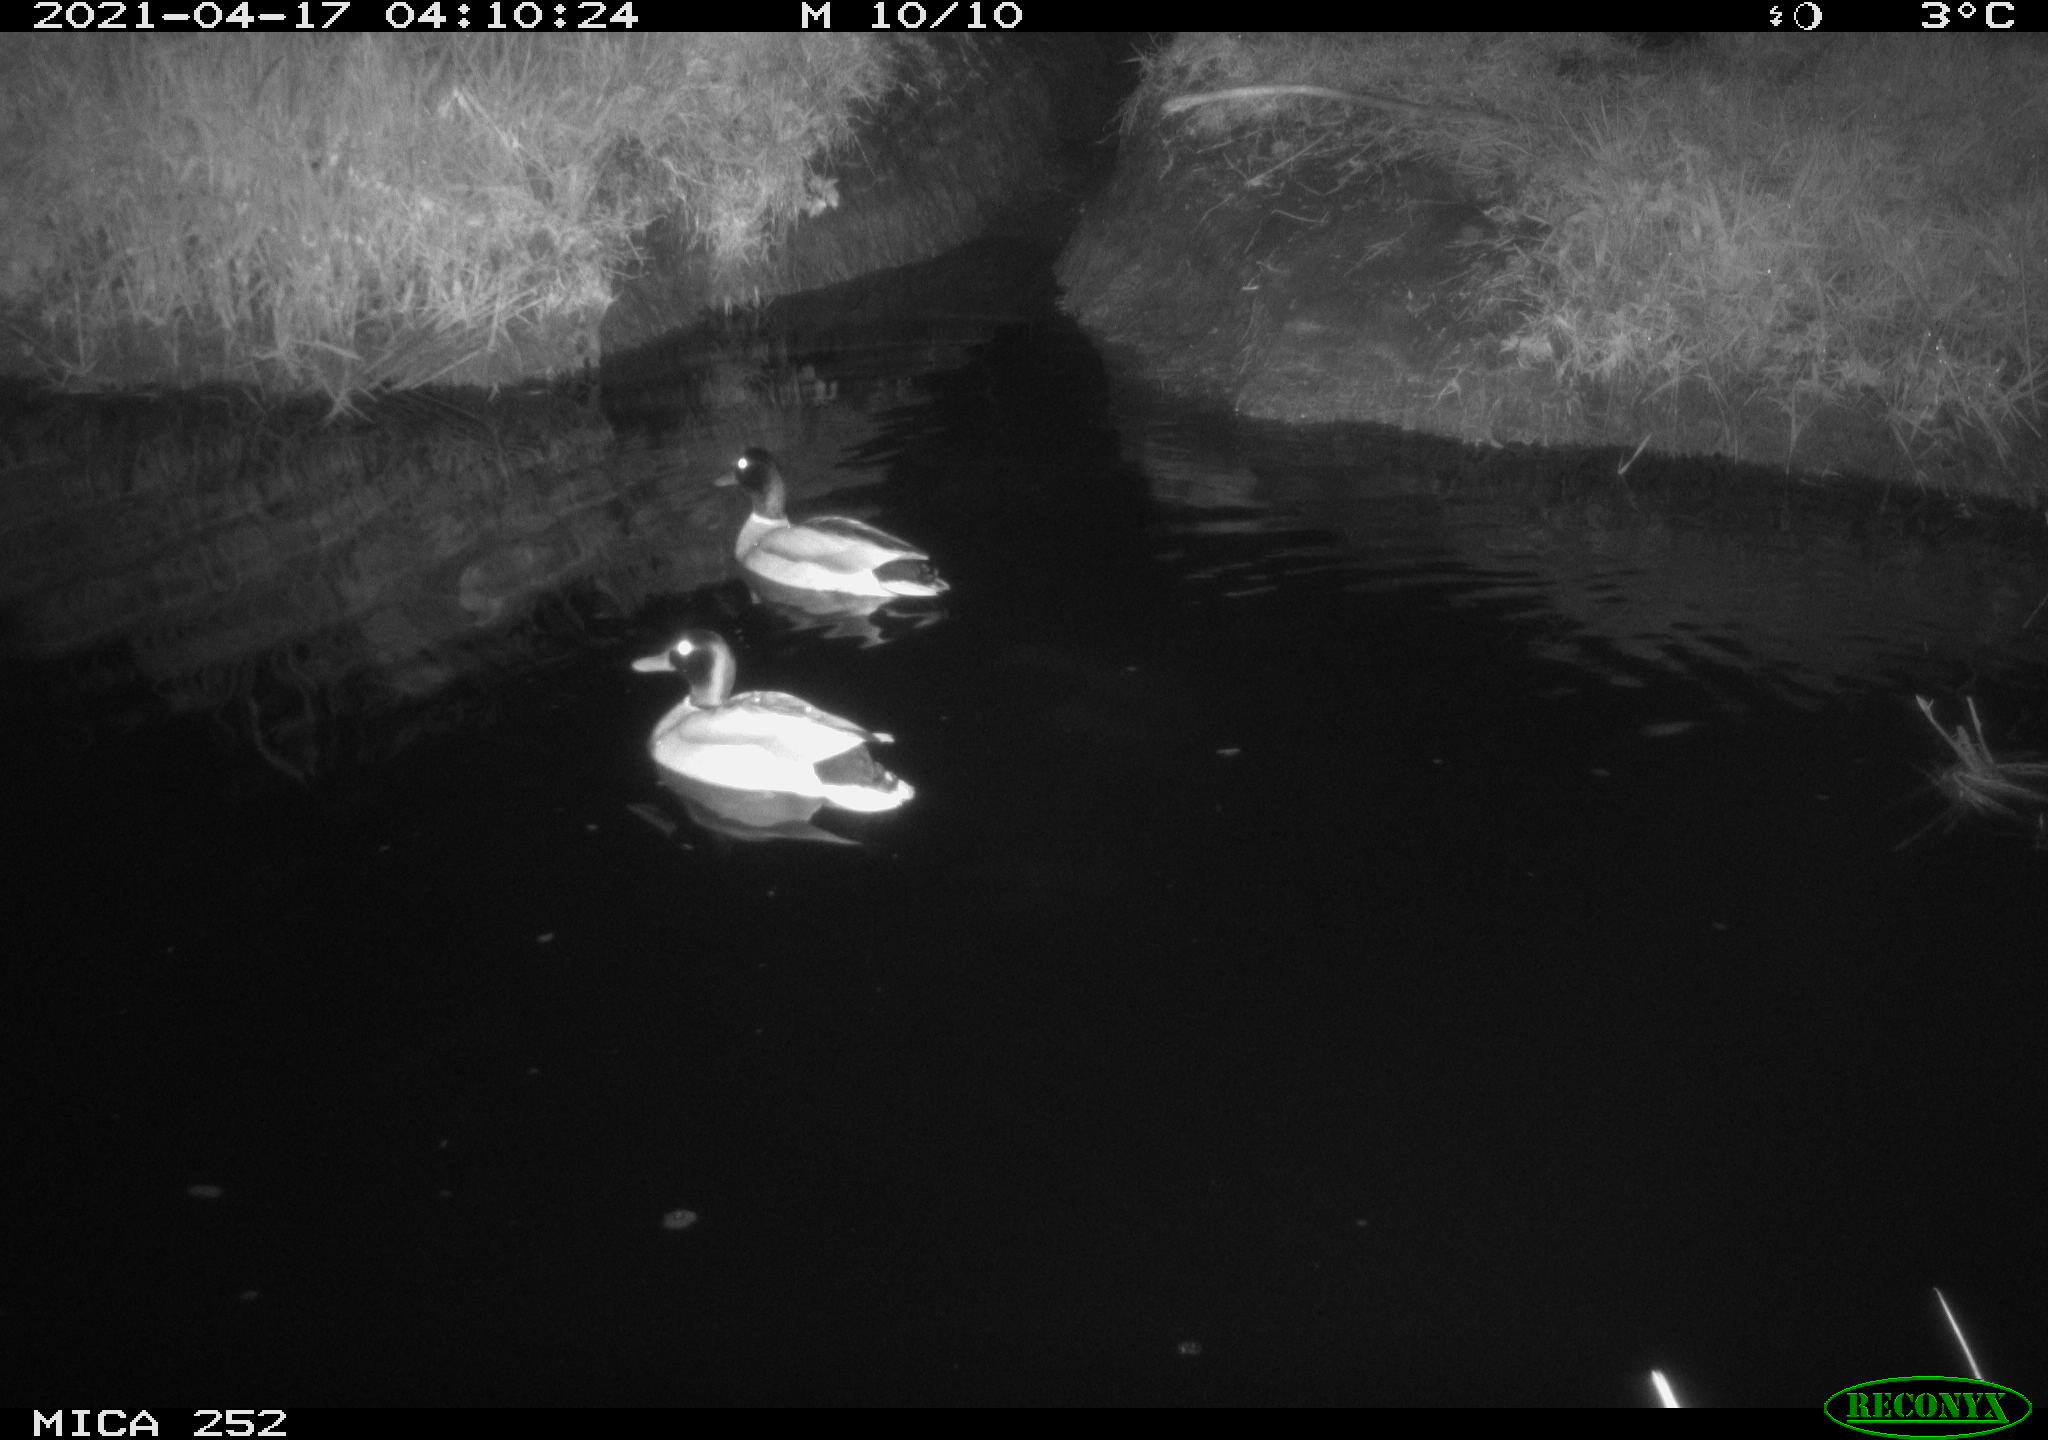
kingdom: Animalia
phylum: Chordata
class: Aves
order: Anseriformes
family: Anatidae
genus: Anas
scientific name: Anas platyrhynchos
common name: Mallard
